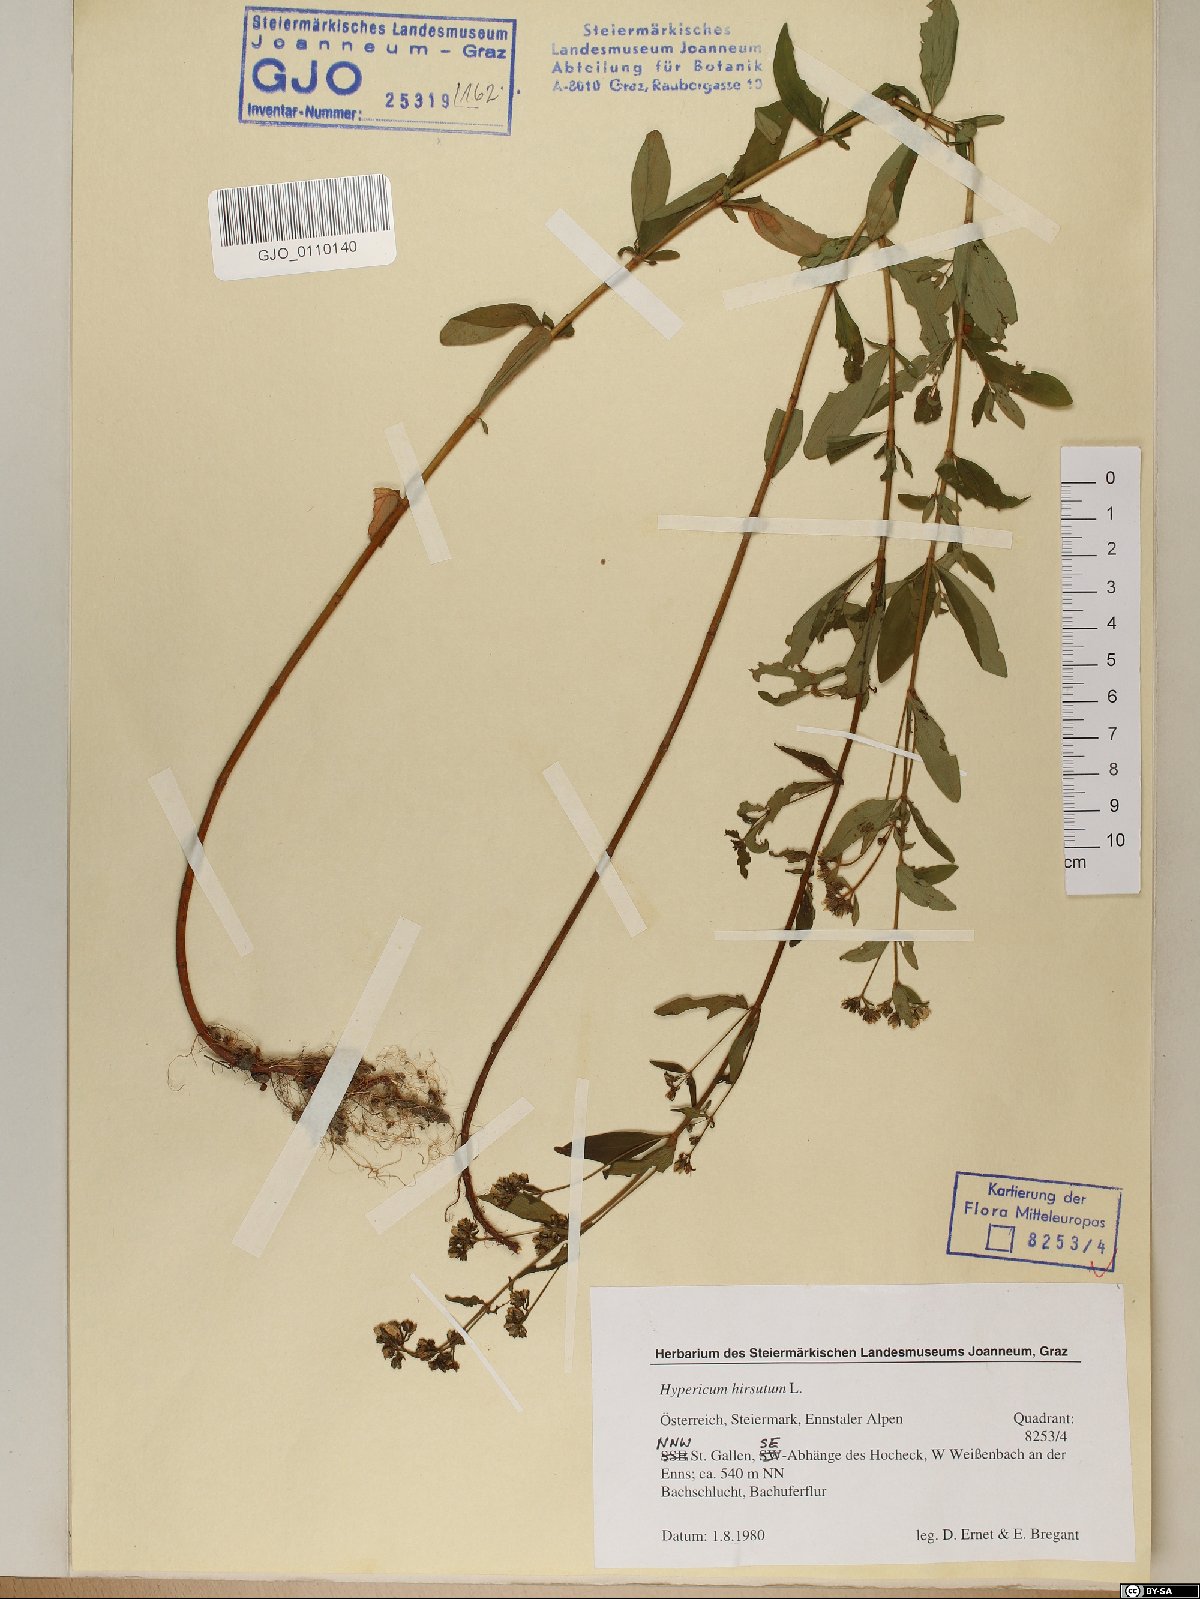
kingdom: Plantae
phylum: Tracheophyta
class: Magnoliopsida
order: Malpighiales
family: Hypericaceae
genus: Hypericum
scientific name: Hypericum hirsutum
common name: Hairy st. john's-wort
